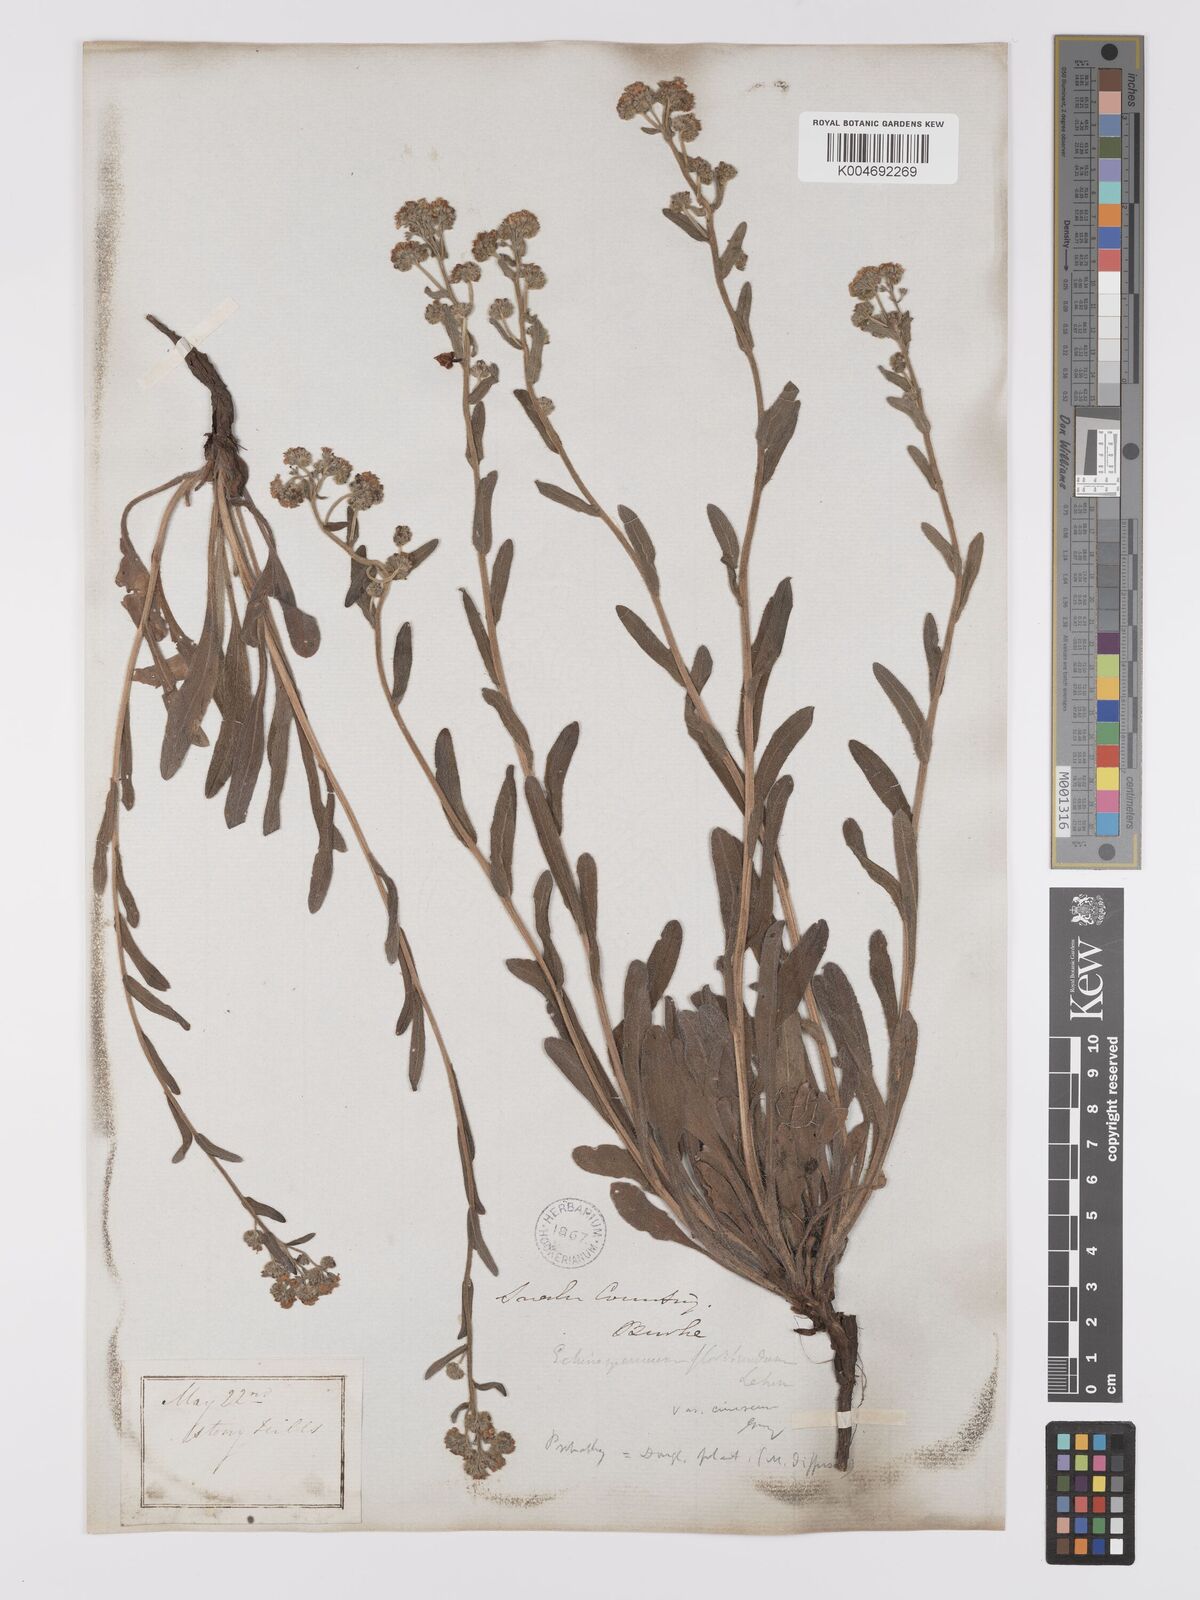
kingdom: Plantae
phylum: Tracheophyta
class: Magnoliopsida
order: Boraginales
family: Boraginaceae
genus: Hackelia
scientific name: Hackelia patens
